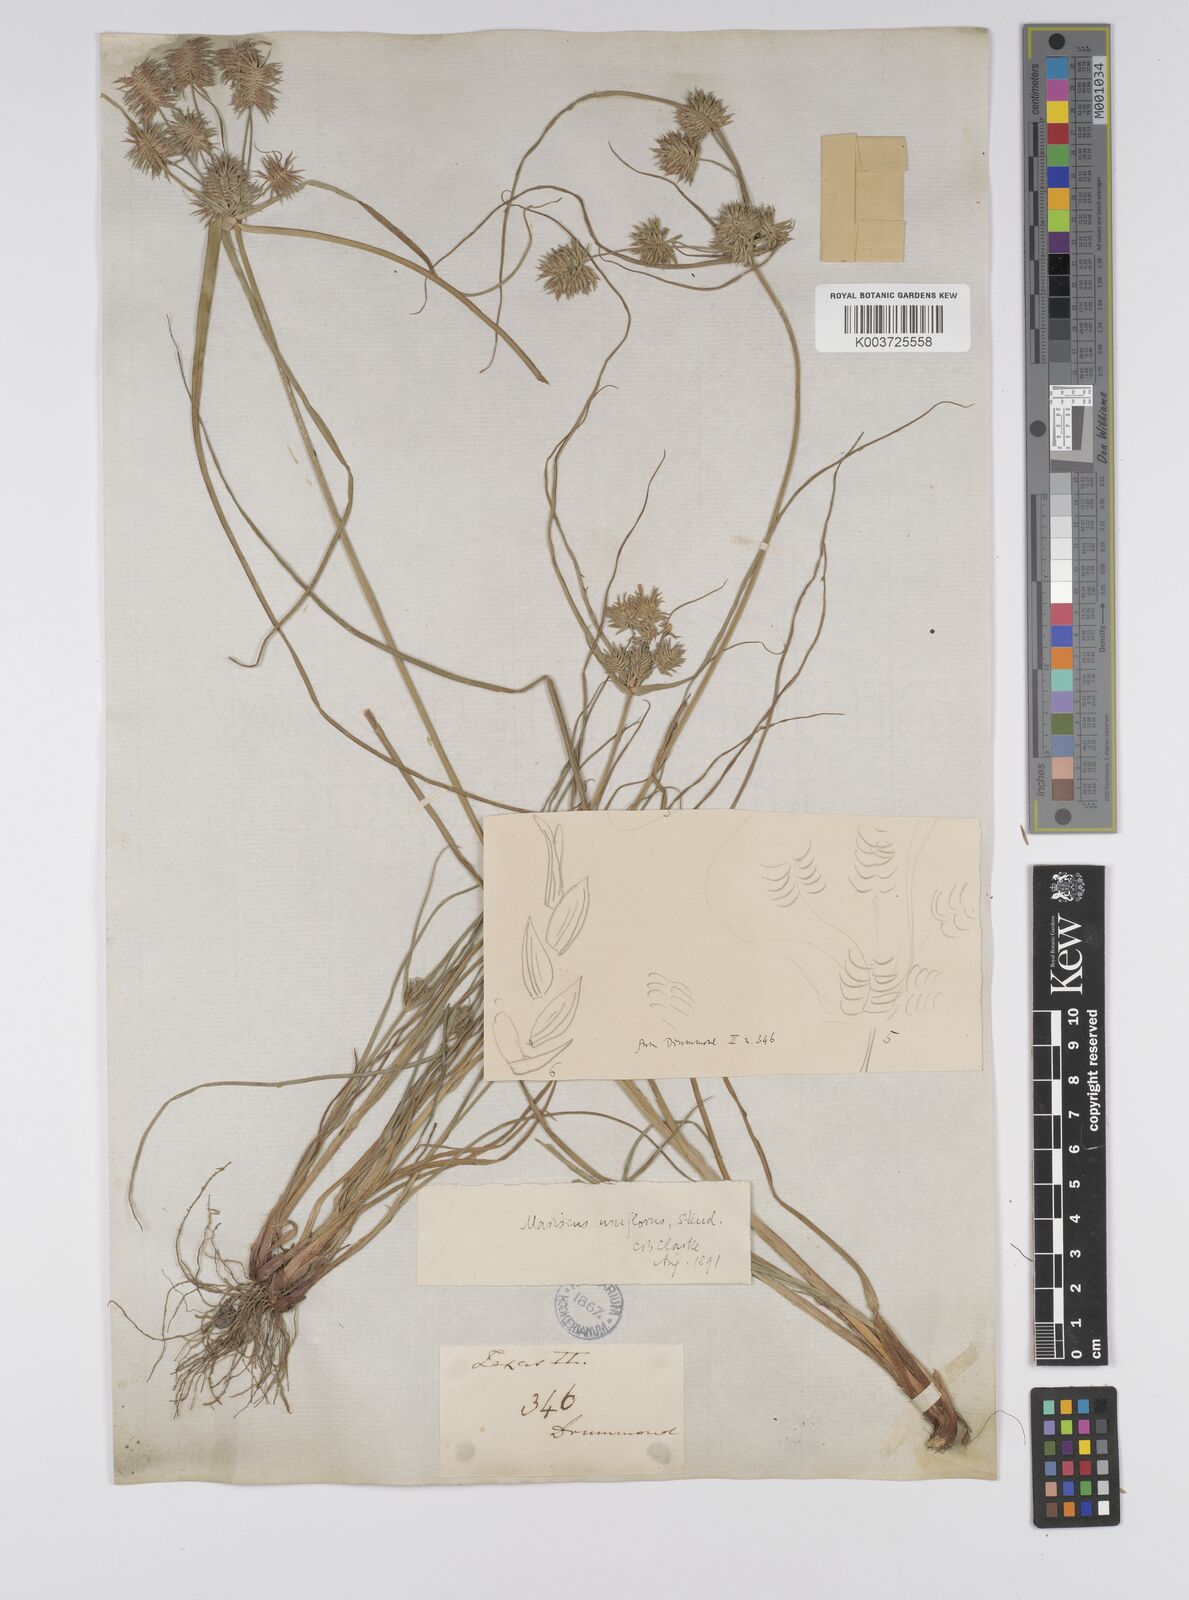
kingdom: Plantae
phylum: Tracheophyta
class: Liliopsida
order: Poales
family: Cyperaceae
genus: Cyperus
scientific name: Cyperus retroflexus
